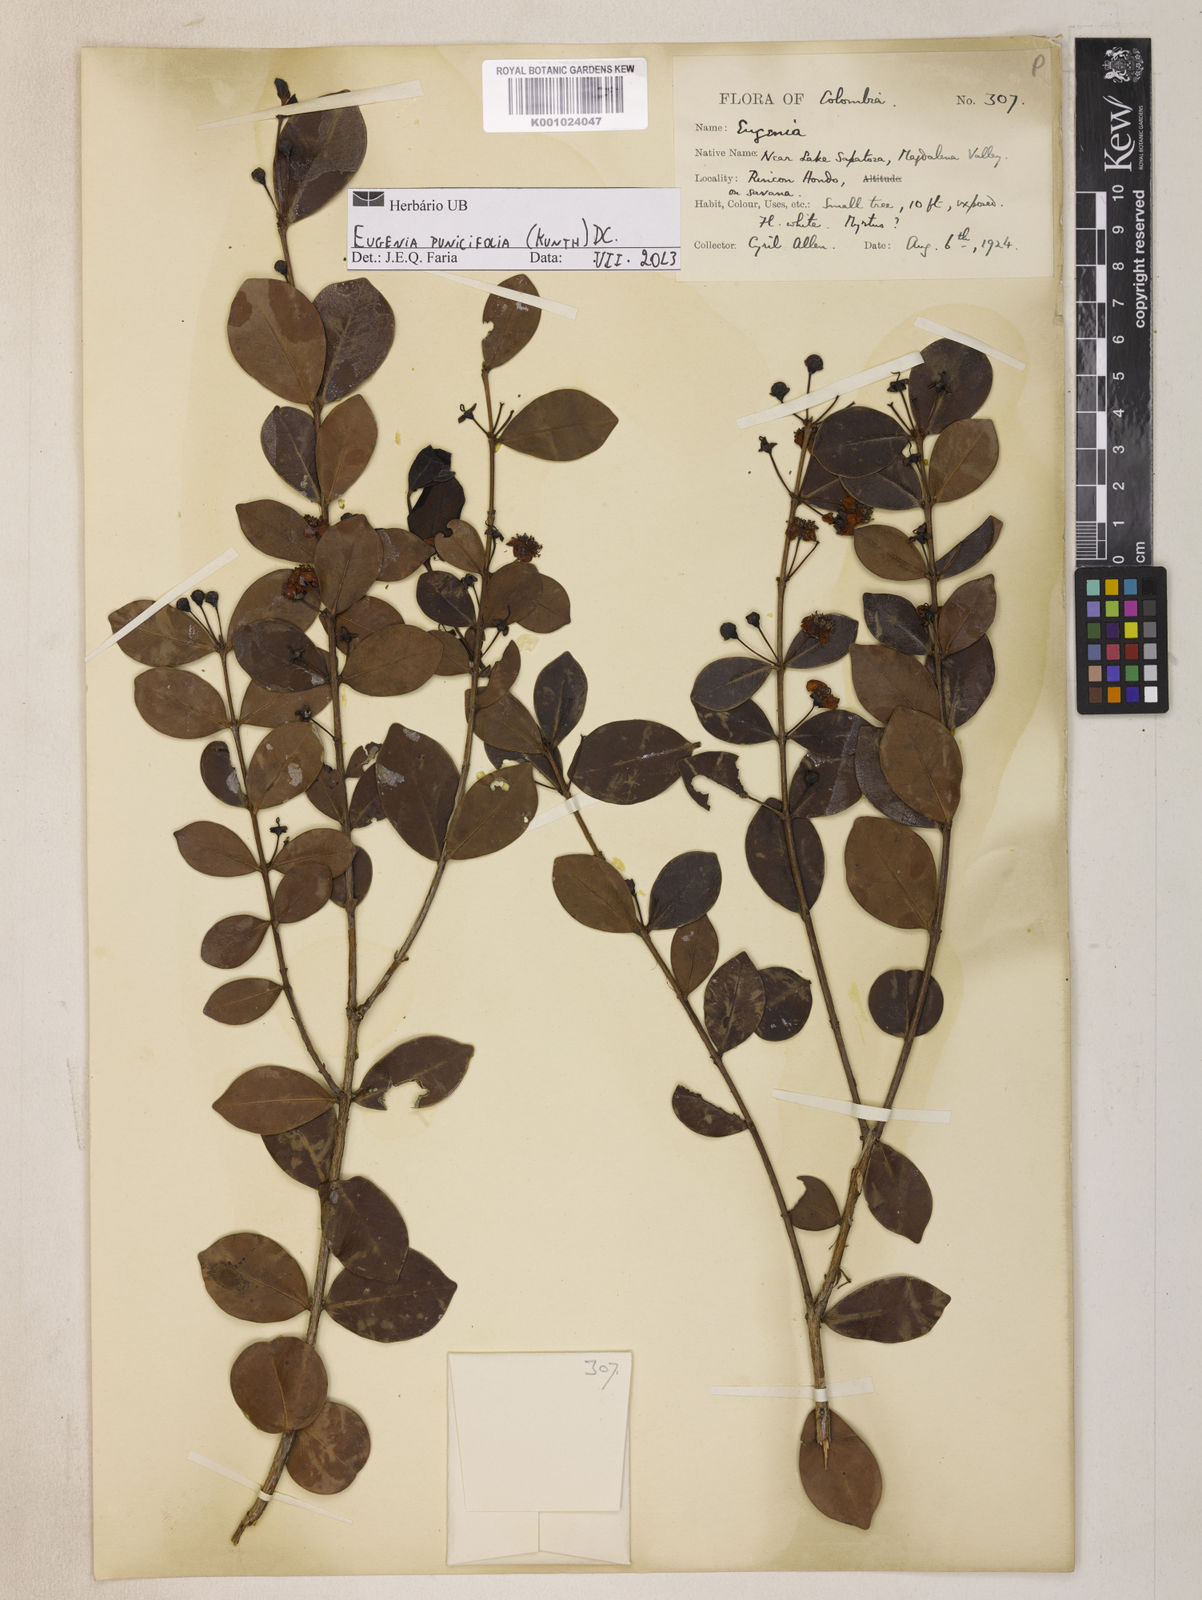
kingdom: Plantae
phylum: Tracheophyta
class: Magnoliopsida
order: Myrtales
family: Myrtaceae
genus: Eugenia
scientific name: Eugenia punicifolia
